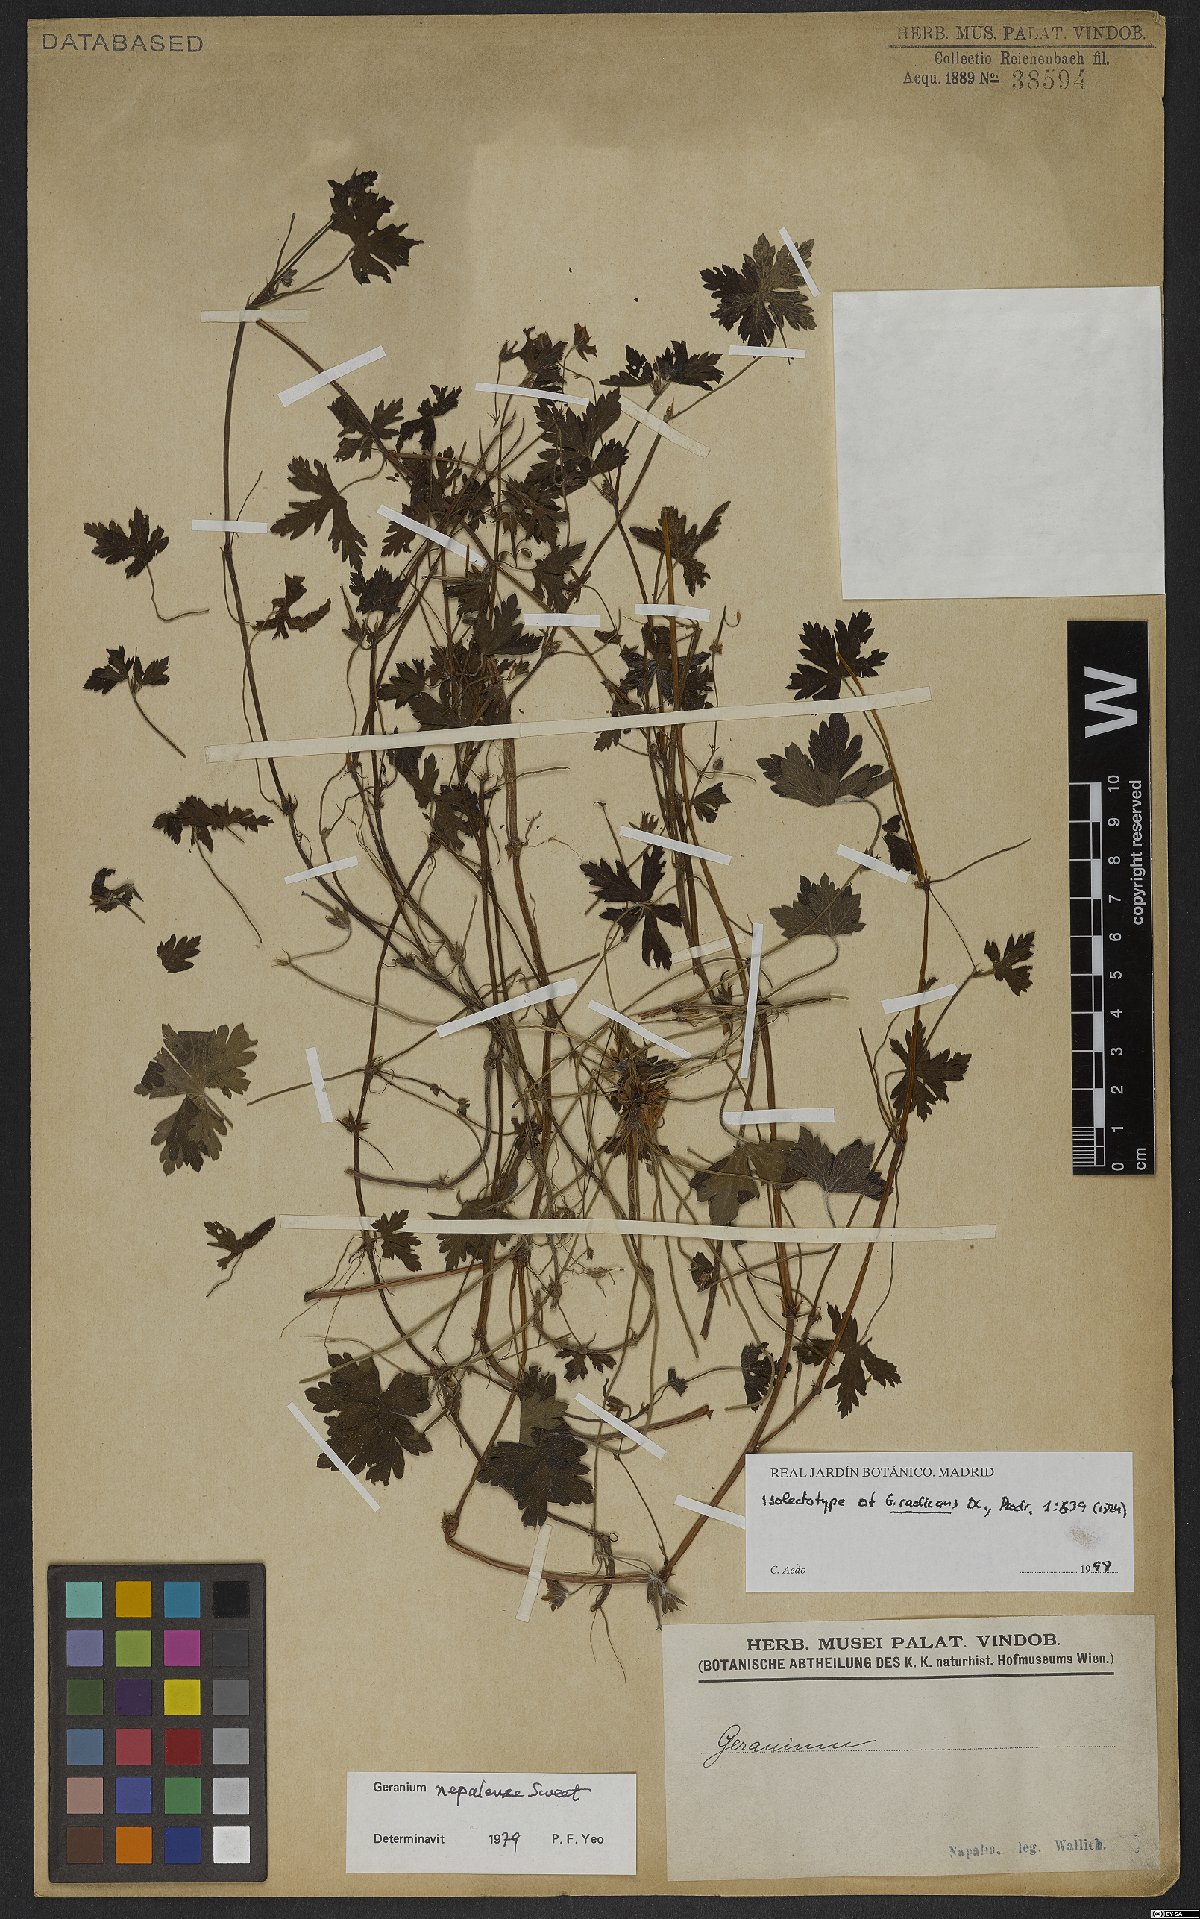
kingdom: Plantae
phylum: Tracheophyta
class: Magnoliopsida
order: Geraniales
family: Geraniaceae
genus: Geranium
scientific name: Geranium nepalense
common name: Nepalese crane's-bill
